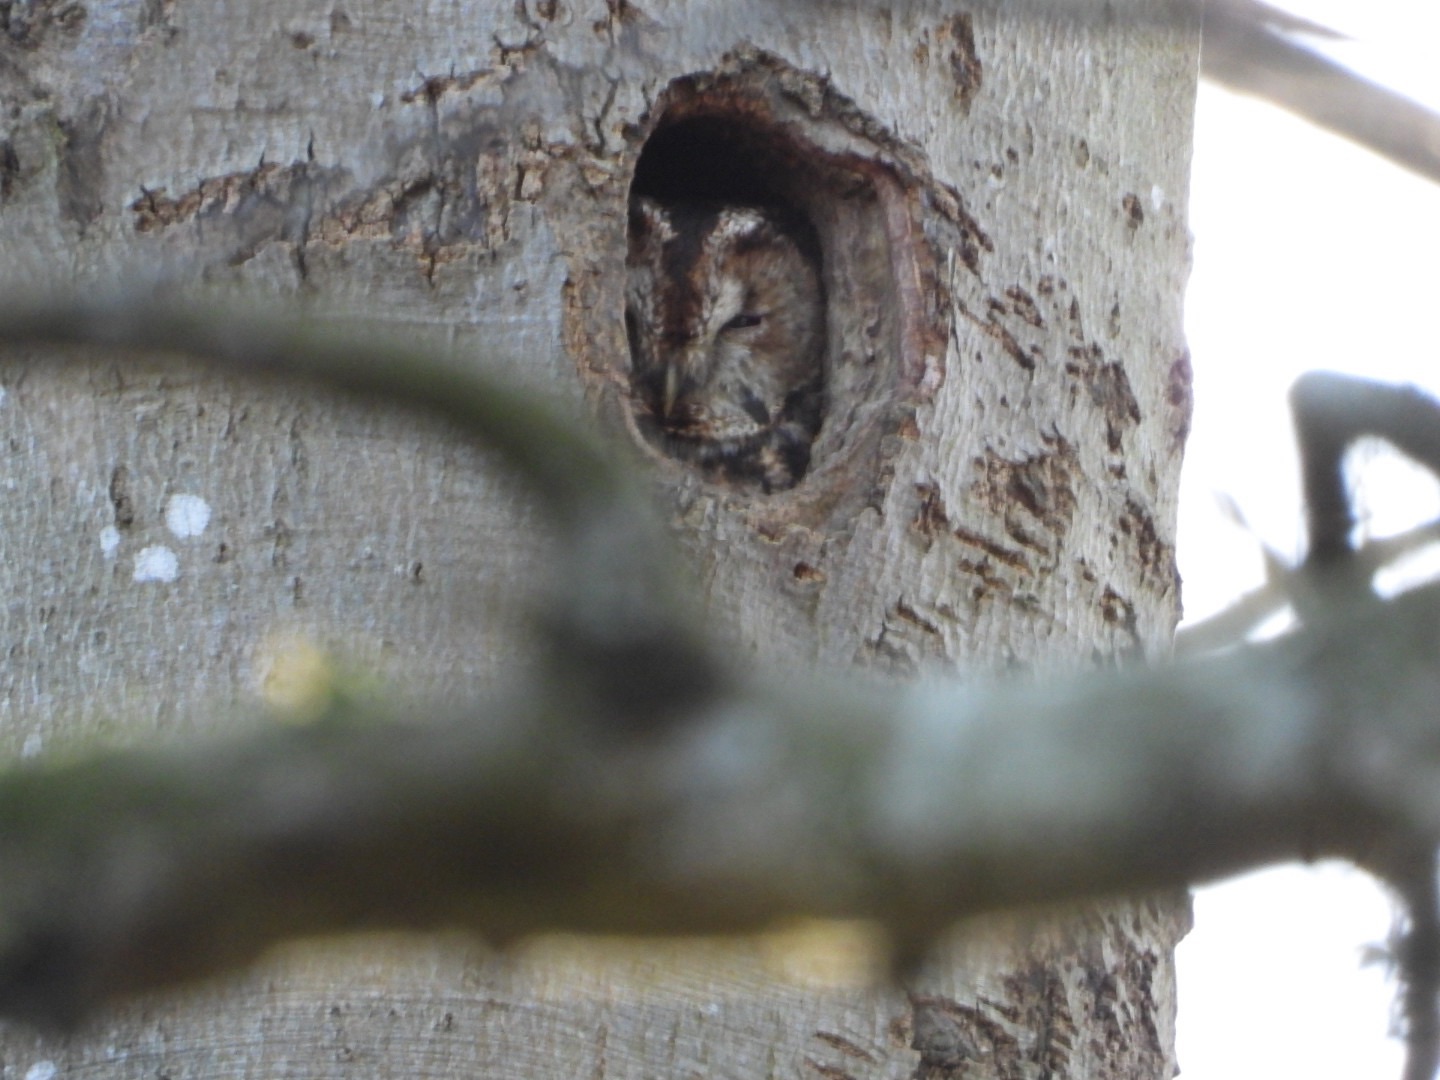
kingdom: Animalia
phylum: Chordata
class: Aves
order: Strigiformes
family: Strigidae
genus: Strix
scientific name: Strix aluco
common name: Natugle
